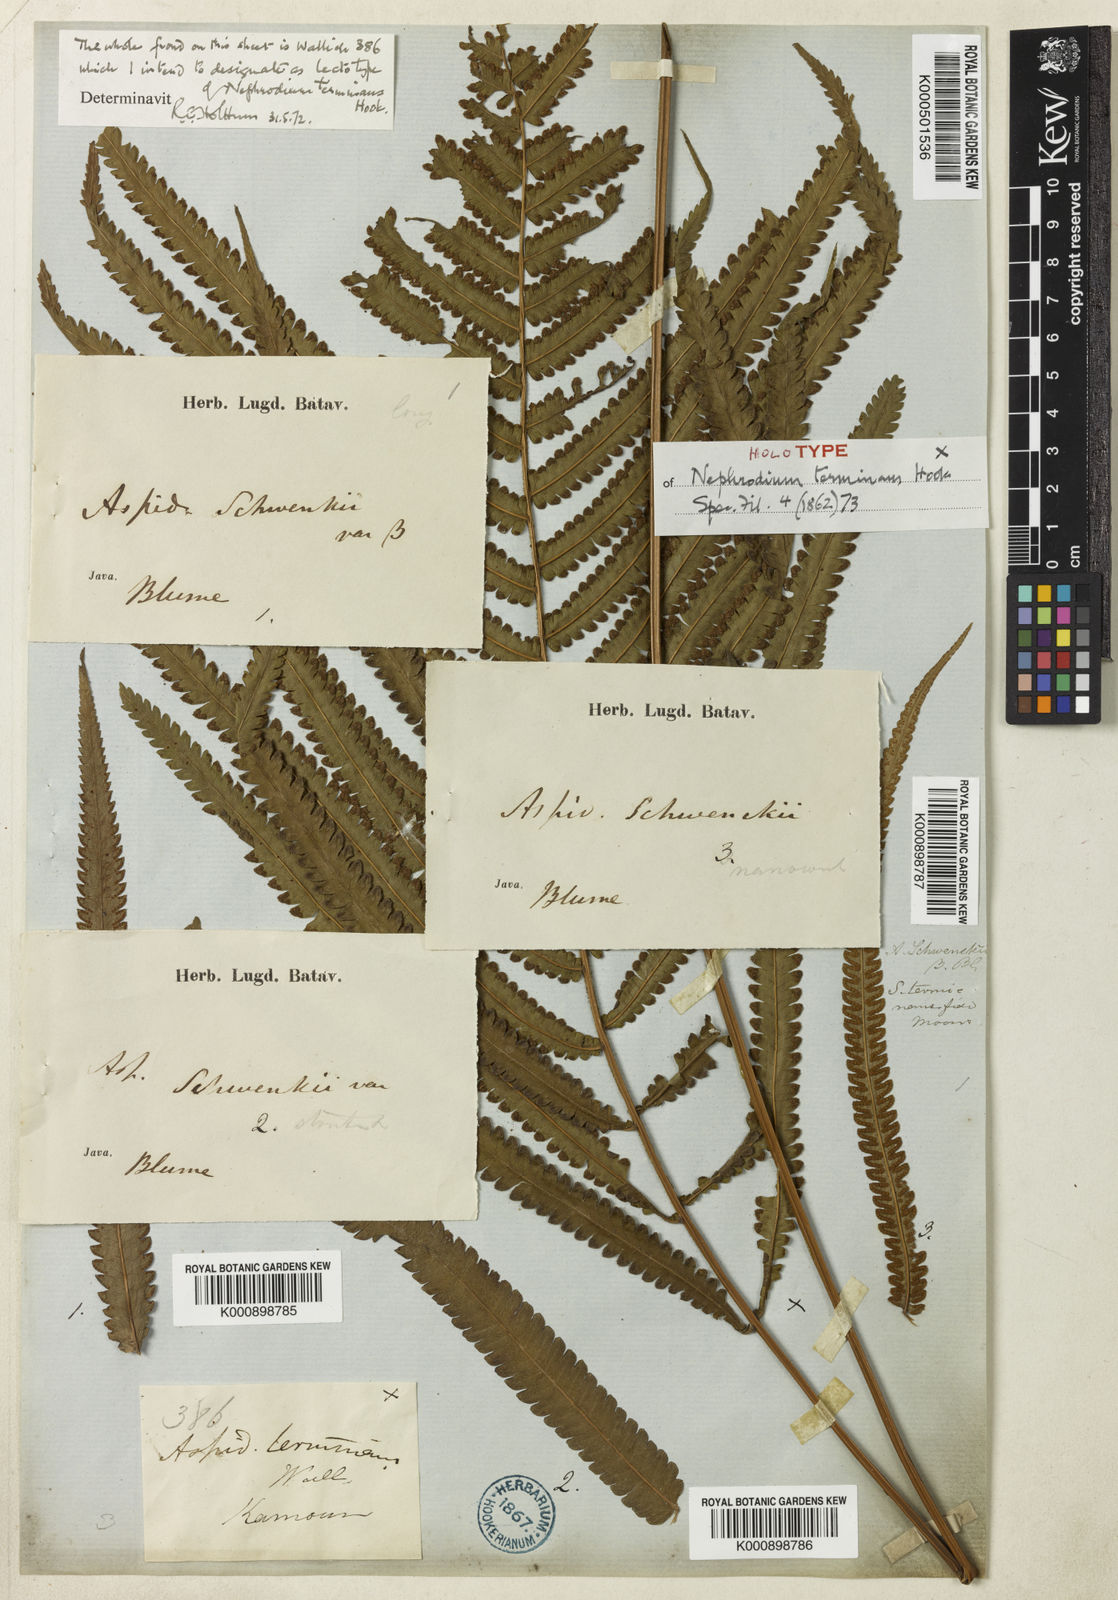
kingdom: Plantae
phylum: Tracheophyta
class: Polypodiopsida
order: Polypodiales
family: Thelypteridaceae
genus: Amblovenatum
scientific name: Amblovenatum terminans
